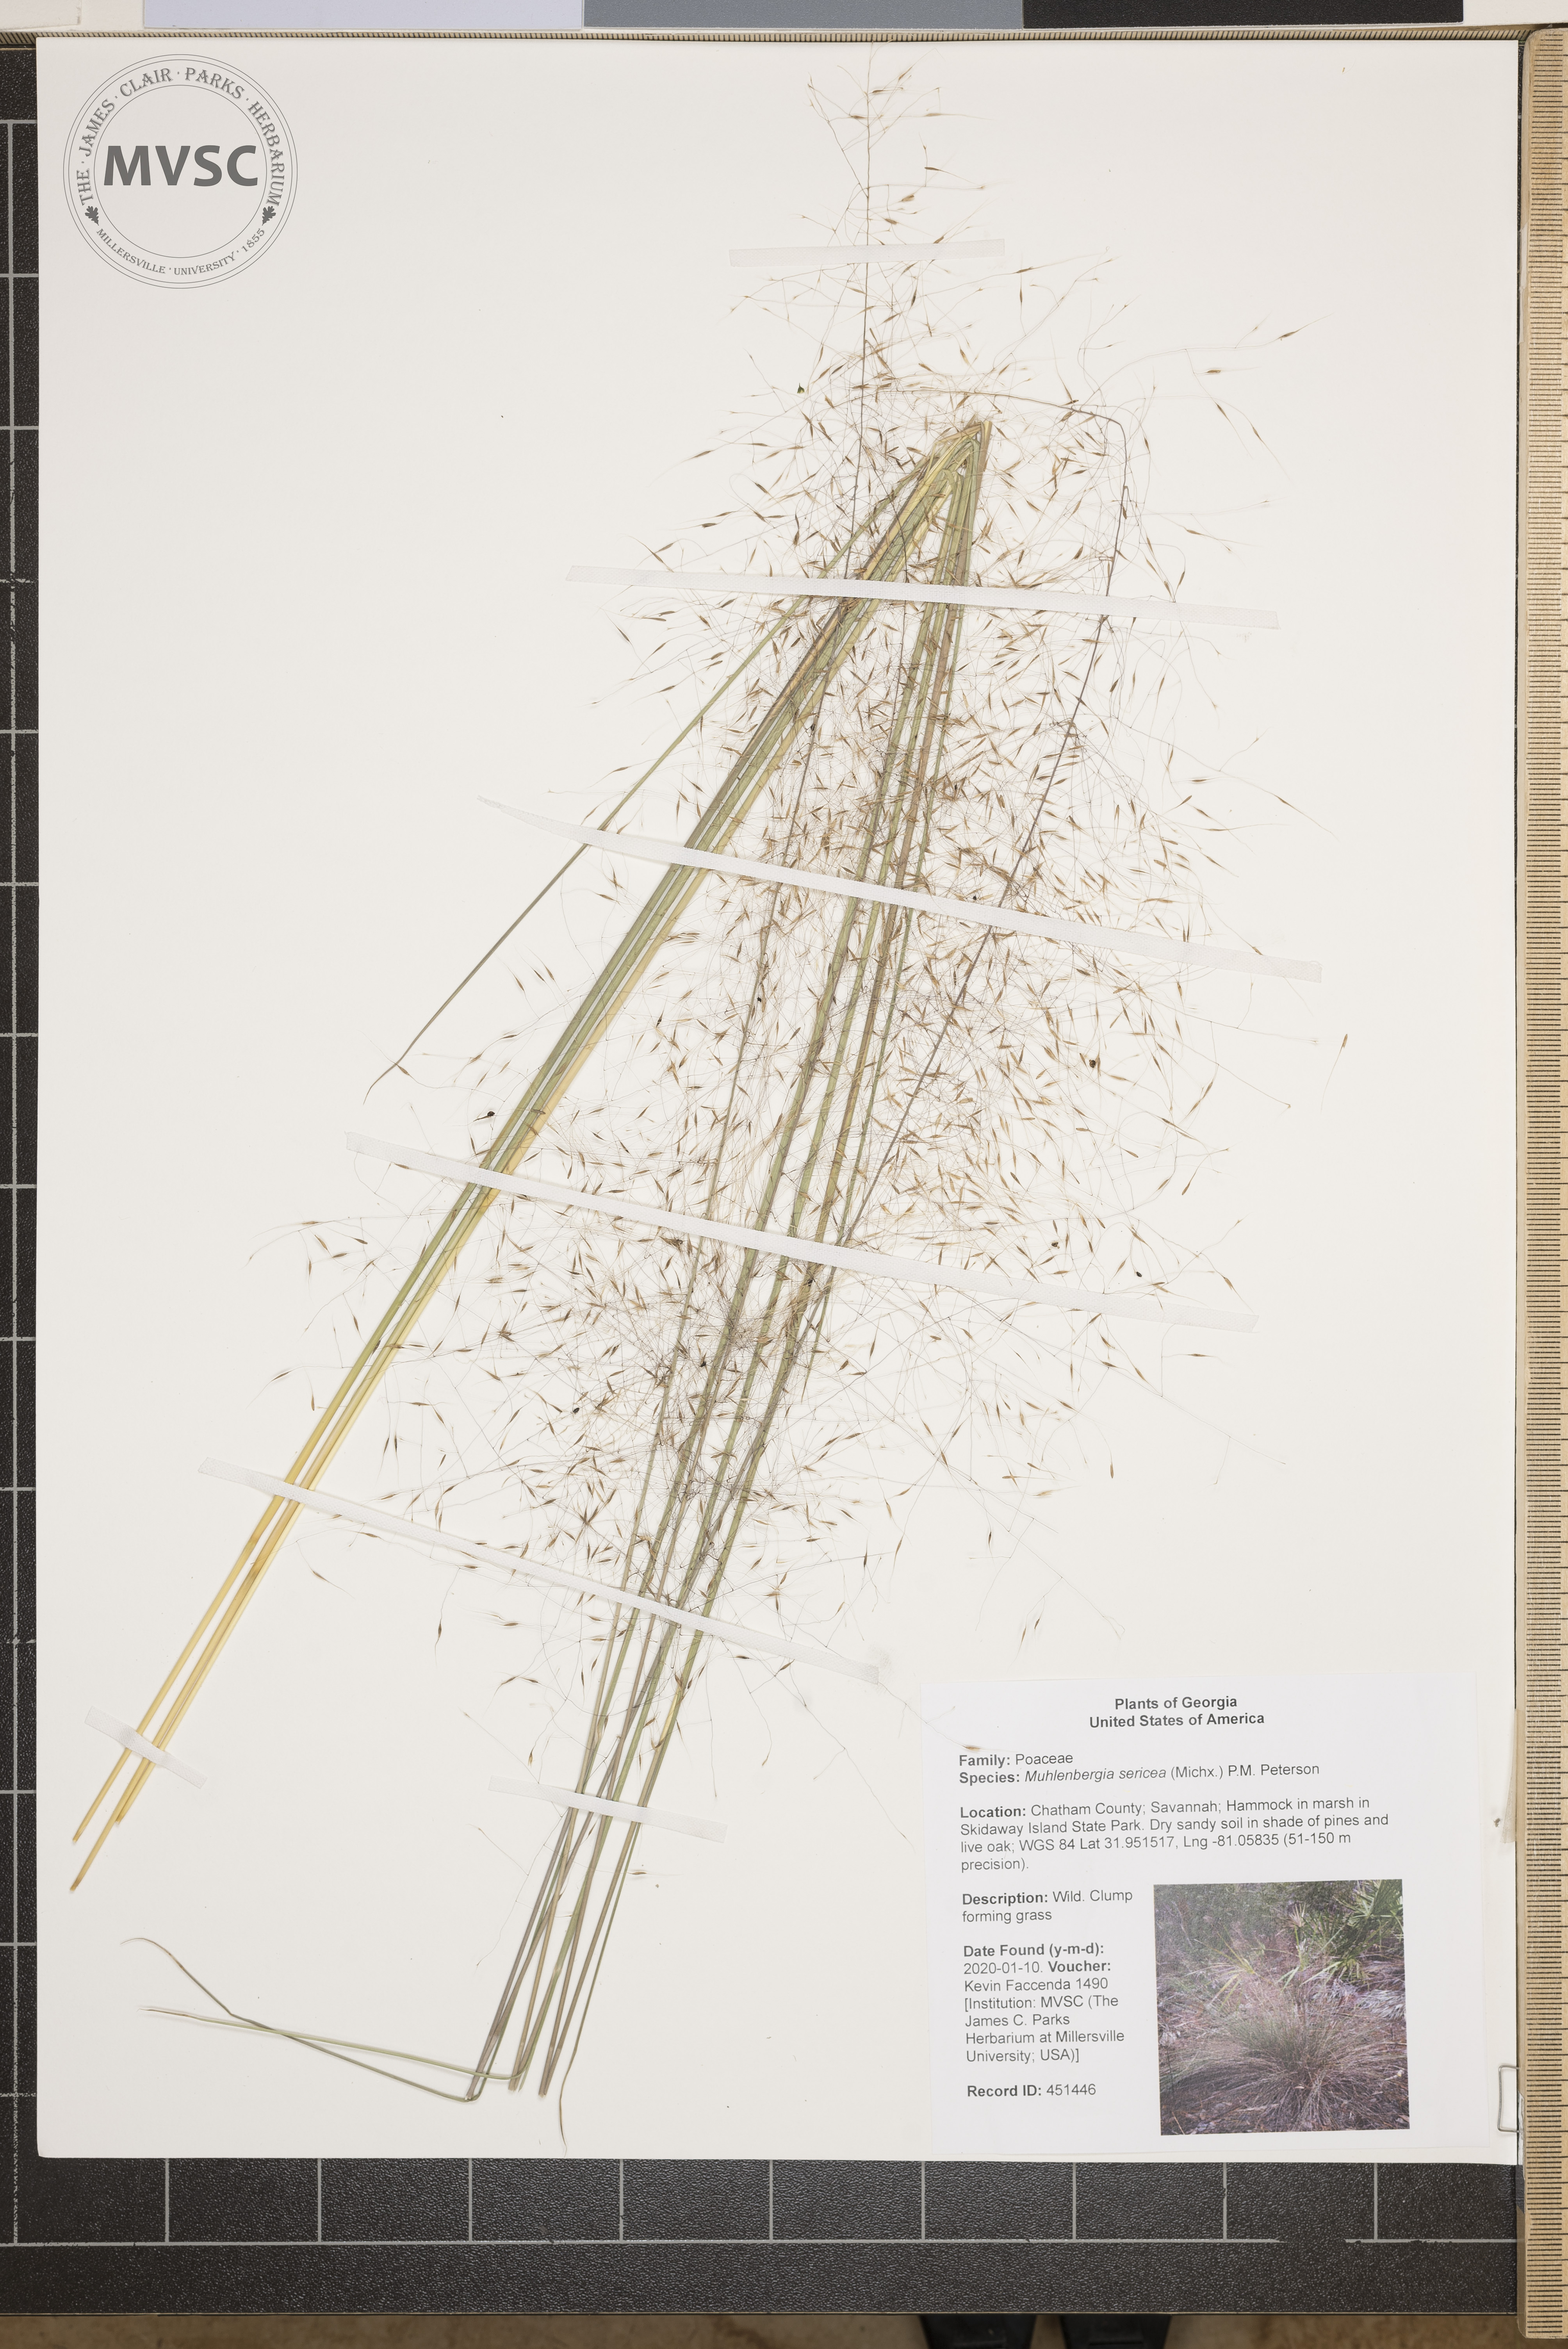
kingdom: Plantae
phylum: Tracheophyta
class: Liliopsida
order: Poales
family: Poaceae
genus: Muhlenbergia
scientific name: Muhlenbergia sericea
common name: Dune-hair grass
